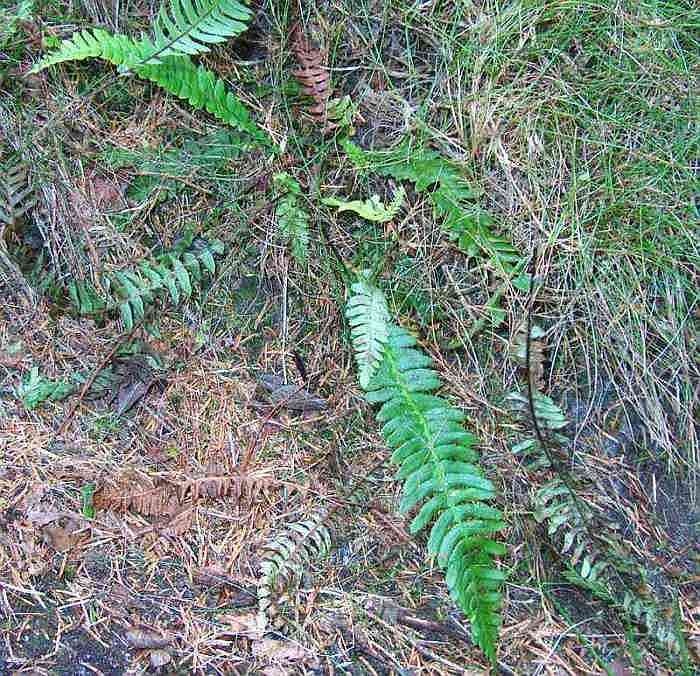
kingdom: Plantae
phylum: Tracheophyta
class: Polypodiopsida
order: Polypodiales
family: Blechnaceae
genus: Struthiopteris
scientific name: Struthiopteris spicant
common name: Kambregne
